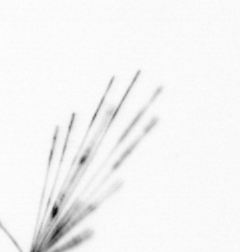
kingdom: Chromista
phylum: Ochrophyta
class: Bacillariophyceae
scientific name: Bacillariophyceae
